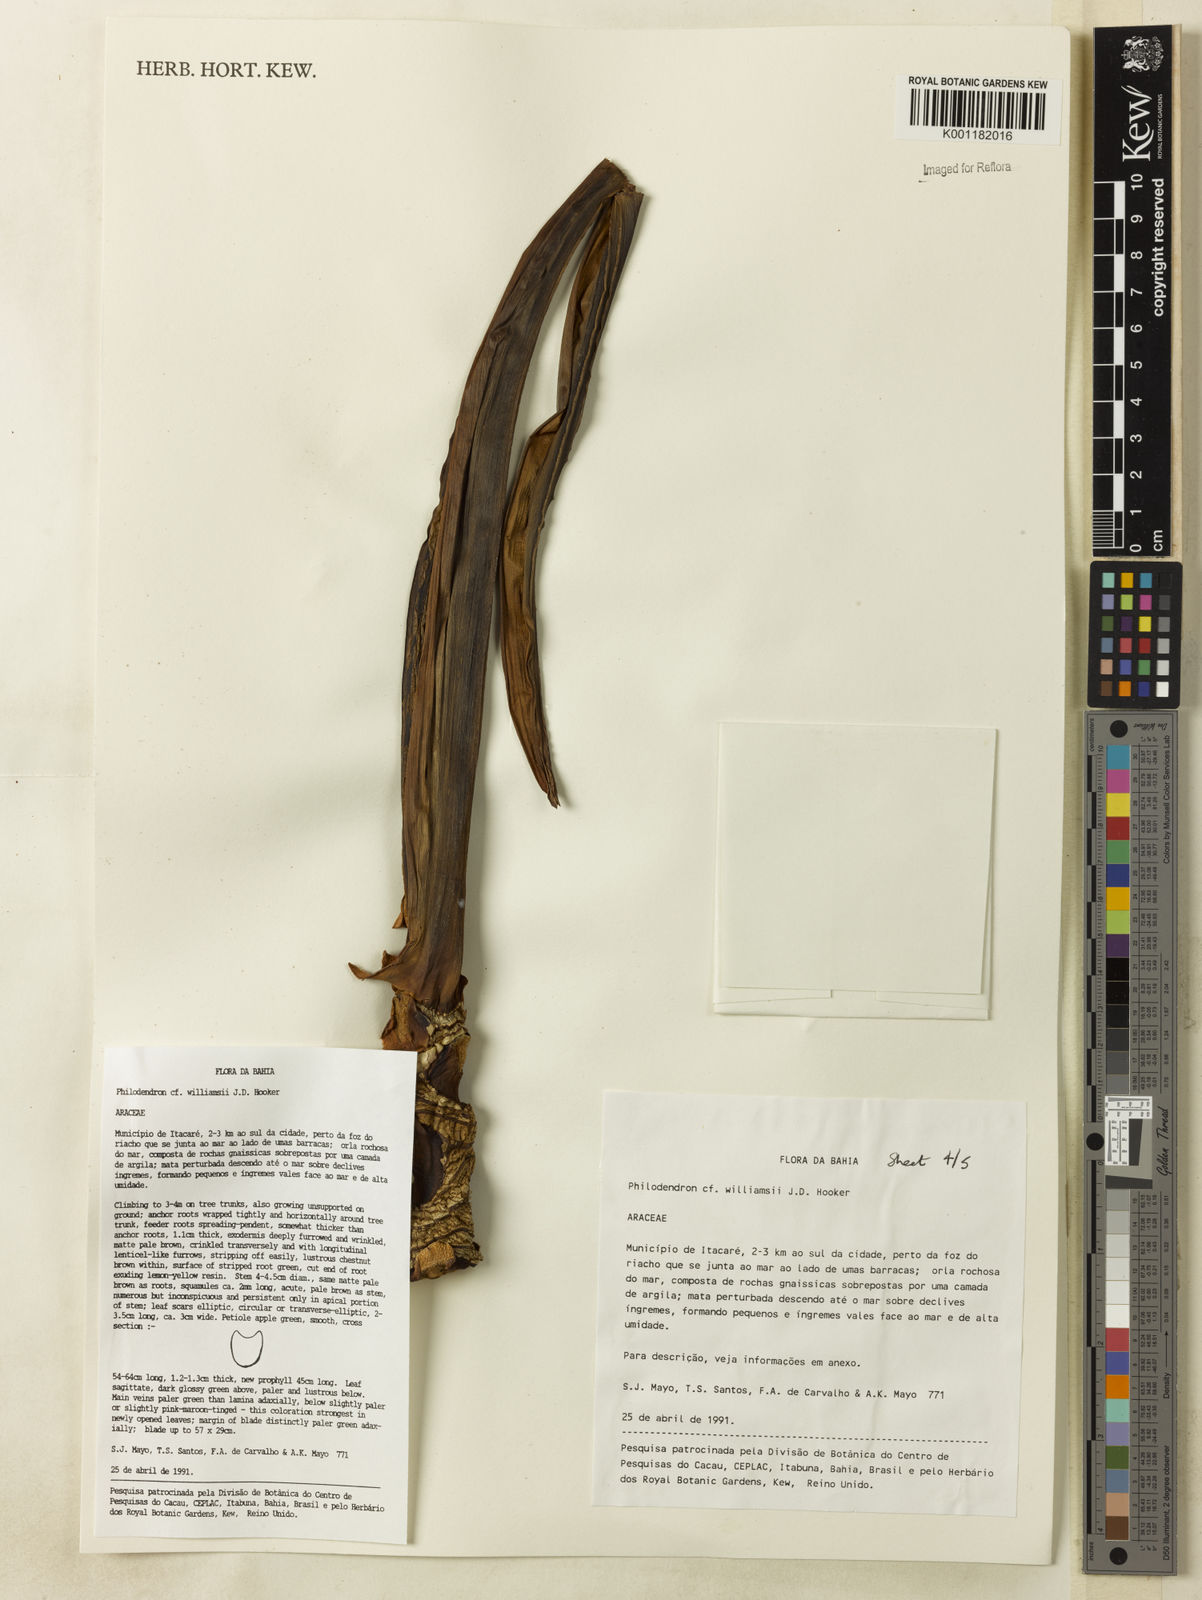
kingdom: Plantae
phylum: Tracheophyta
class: Liliopsida
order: Alismatales
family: Araceae
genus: Thaumatophyllum
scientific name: Thaumatophyllum williamsii
